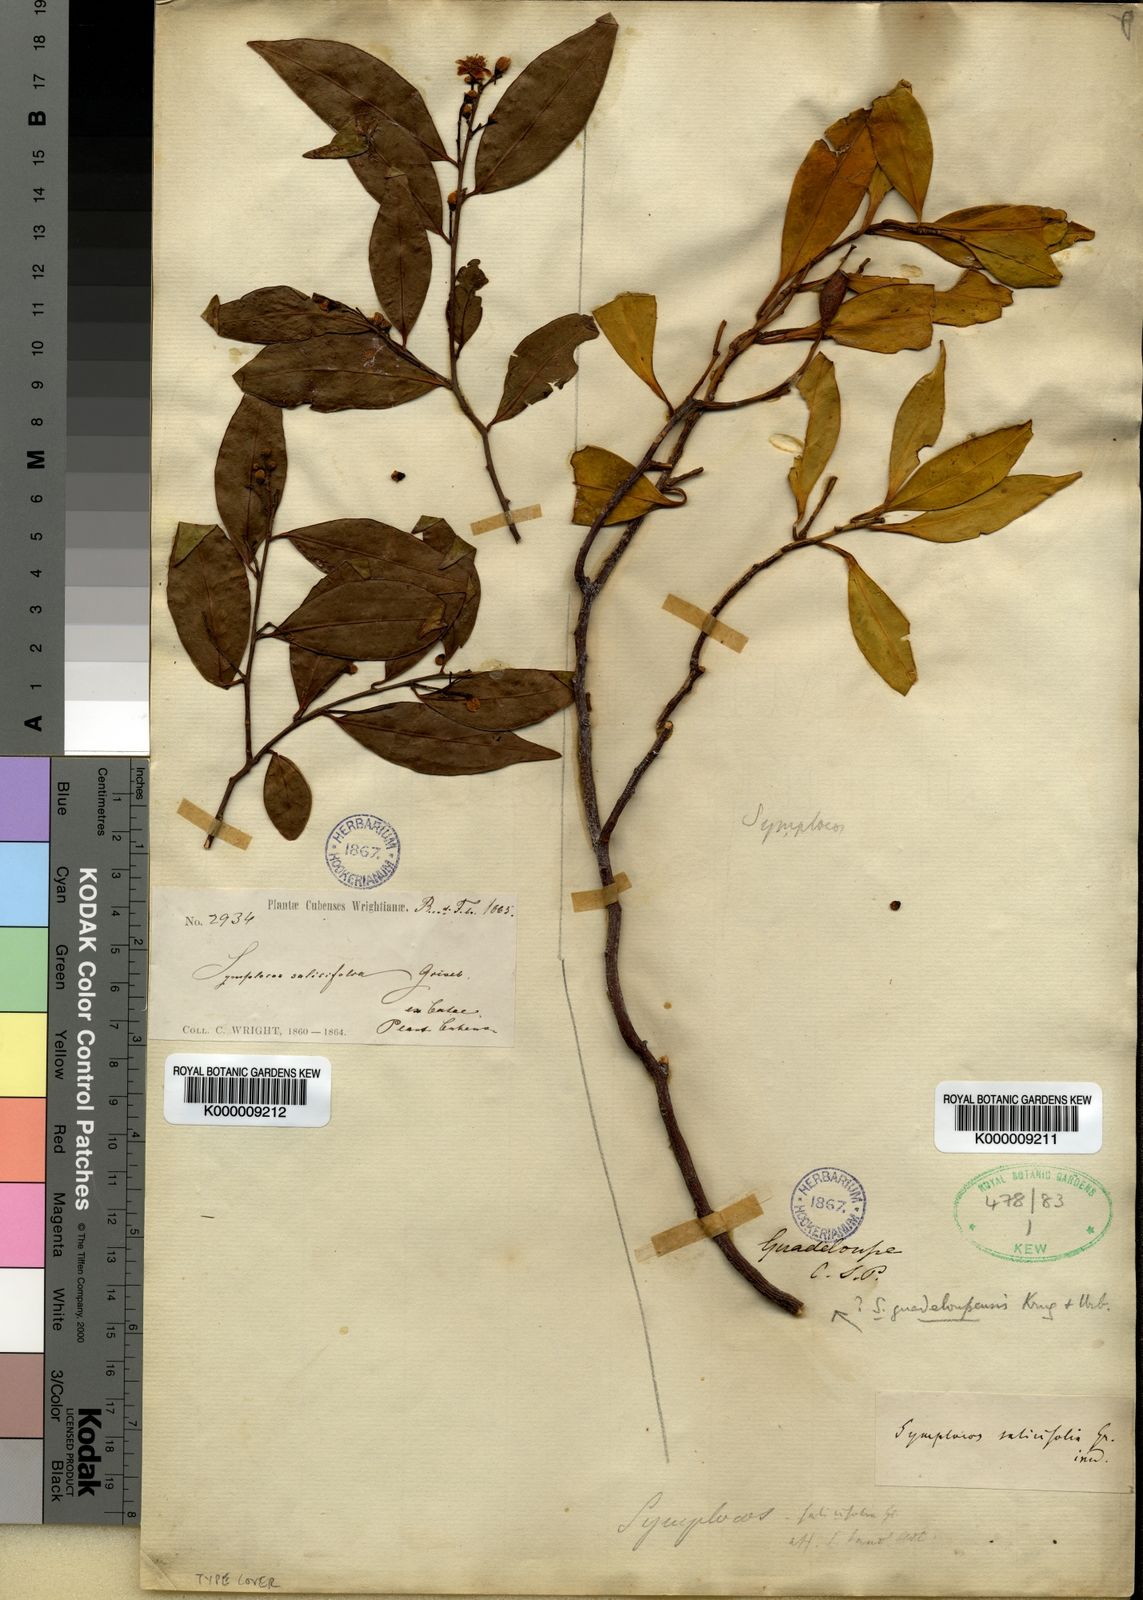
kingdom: Plantae
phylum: Tracheophyta
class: Magnoliopsida
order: Ericales
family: Symplocaceae
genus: Symplocos
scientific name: Symplocos salicifolia
